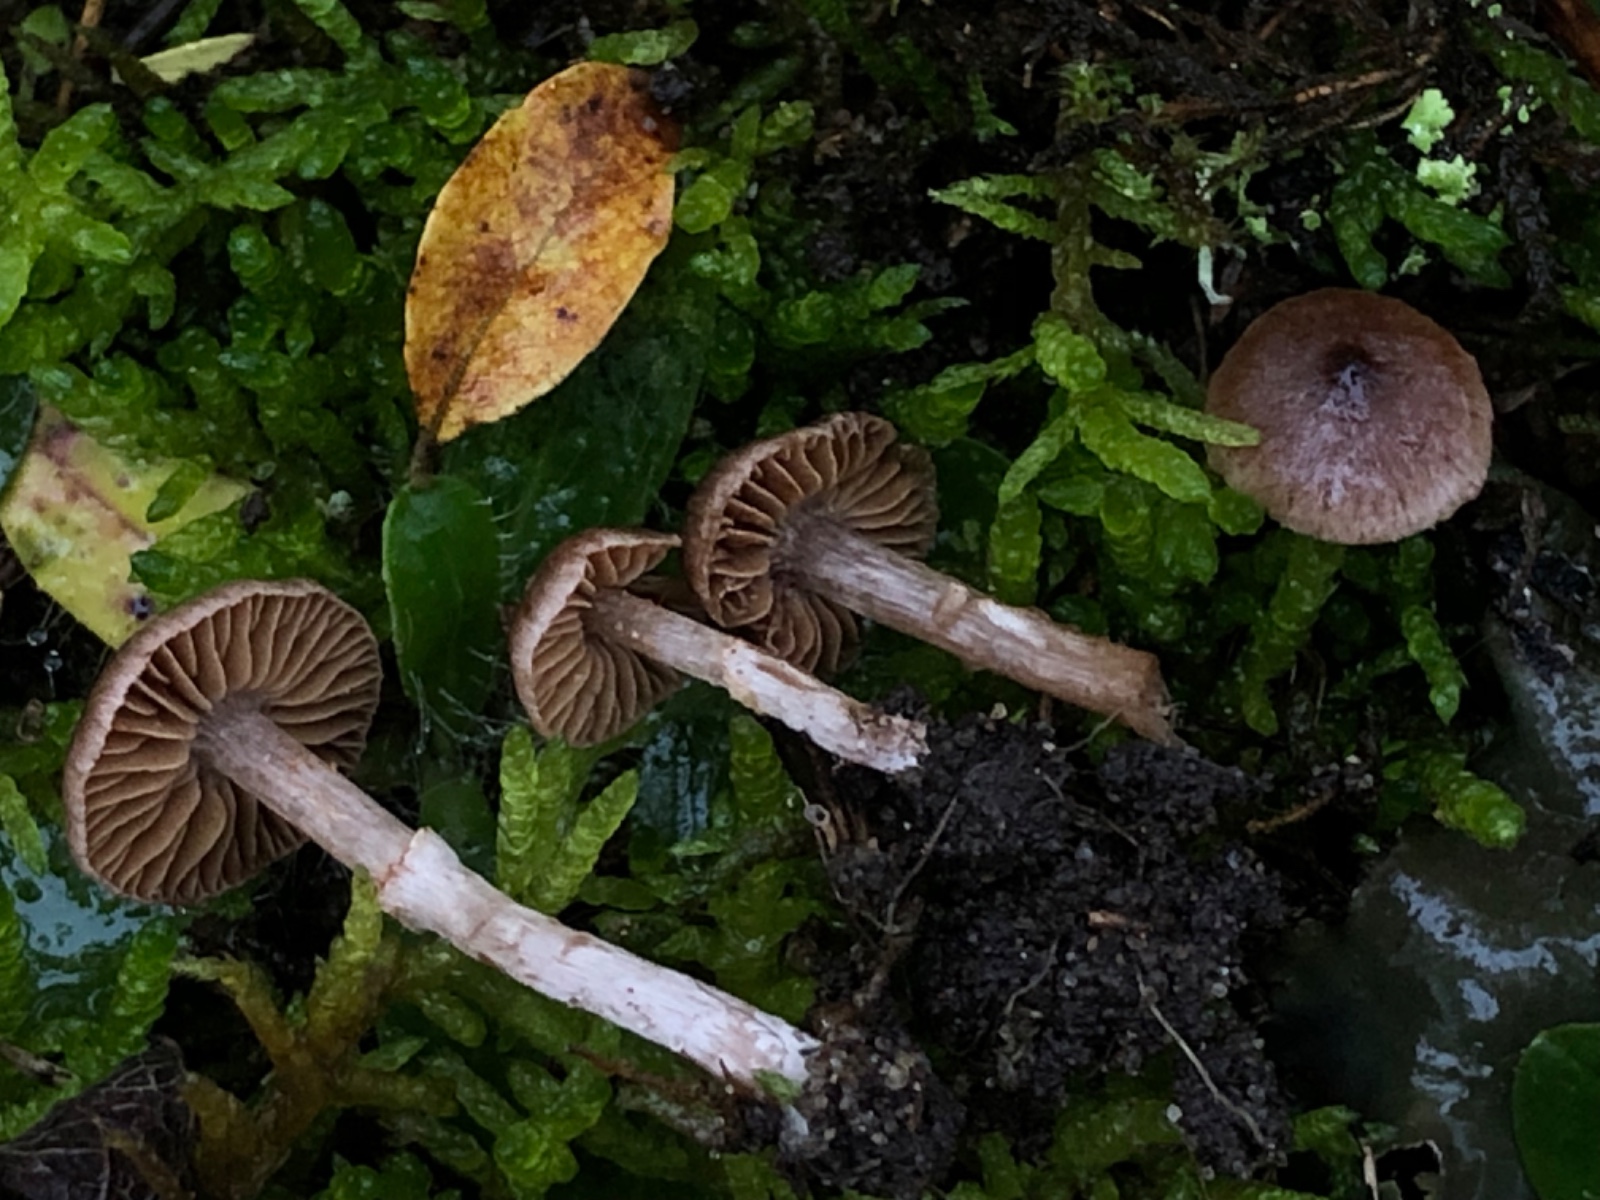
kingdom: Fungi
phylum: Basidiomycota
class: Agaricomycetes
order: Agaricales
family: Cortinariaceae
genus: Cortinarius
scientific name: Cortinarius
